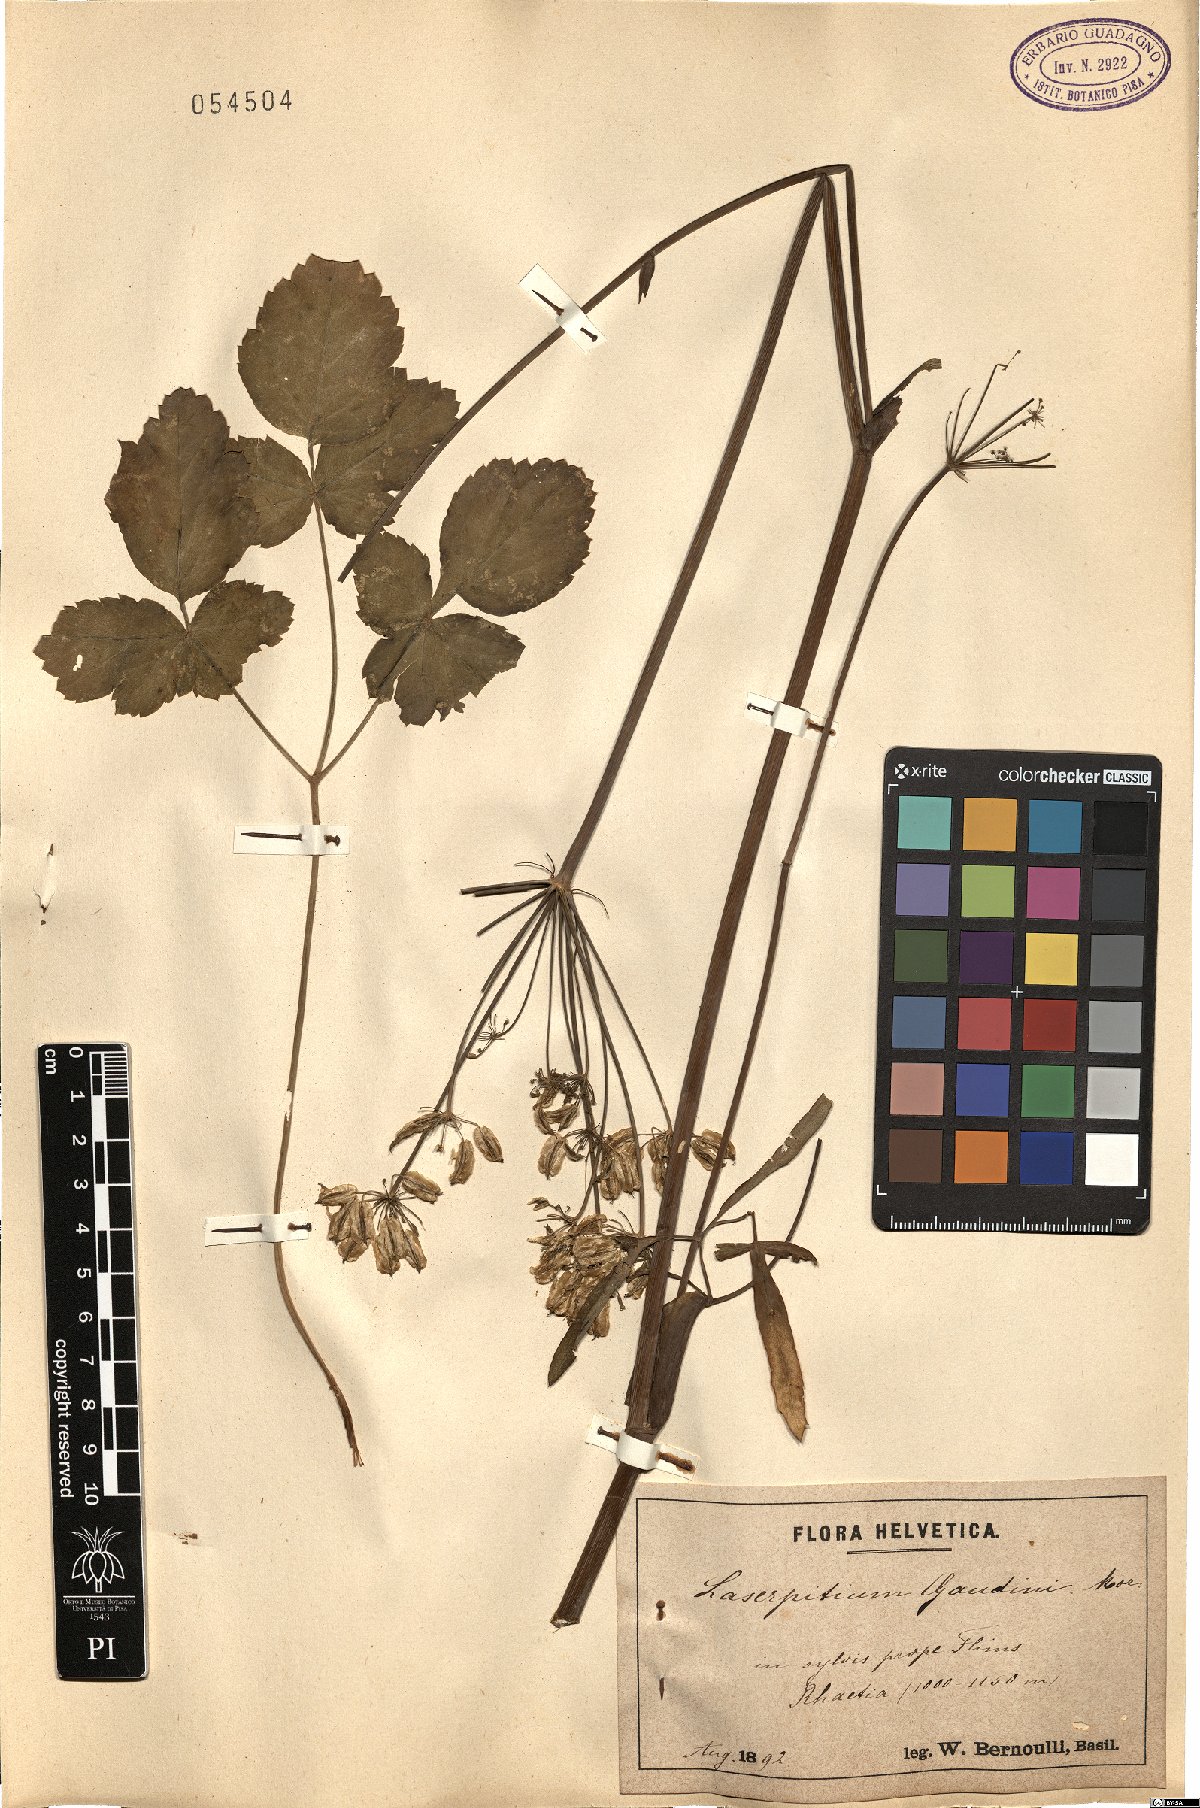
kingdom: Plantae
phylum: Tracheophyta
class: Magnoliopsida
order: Apiales
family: Apiaceae
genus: Laserpitium
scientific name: Laserpitium krapffii
